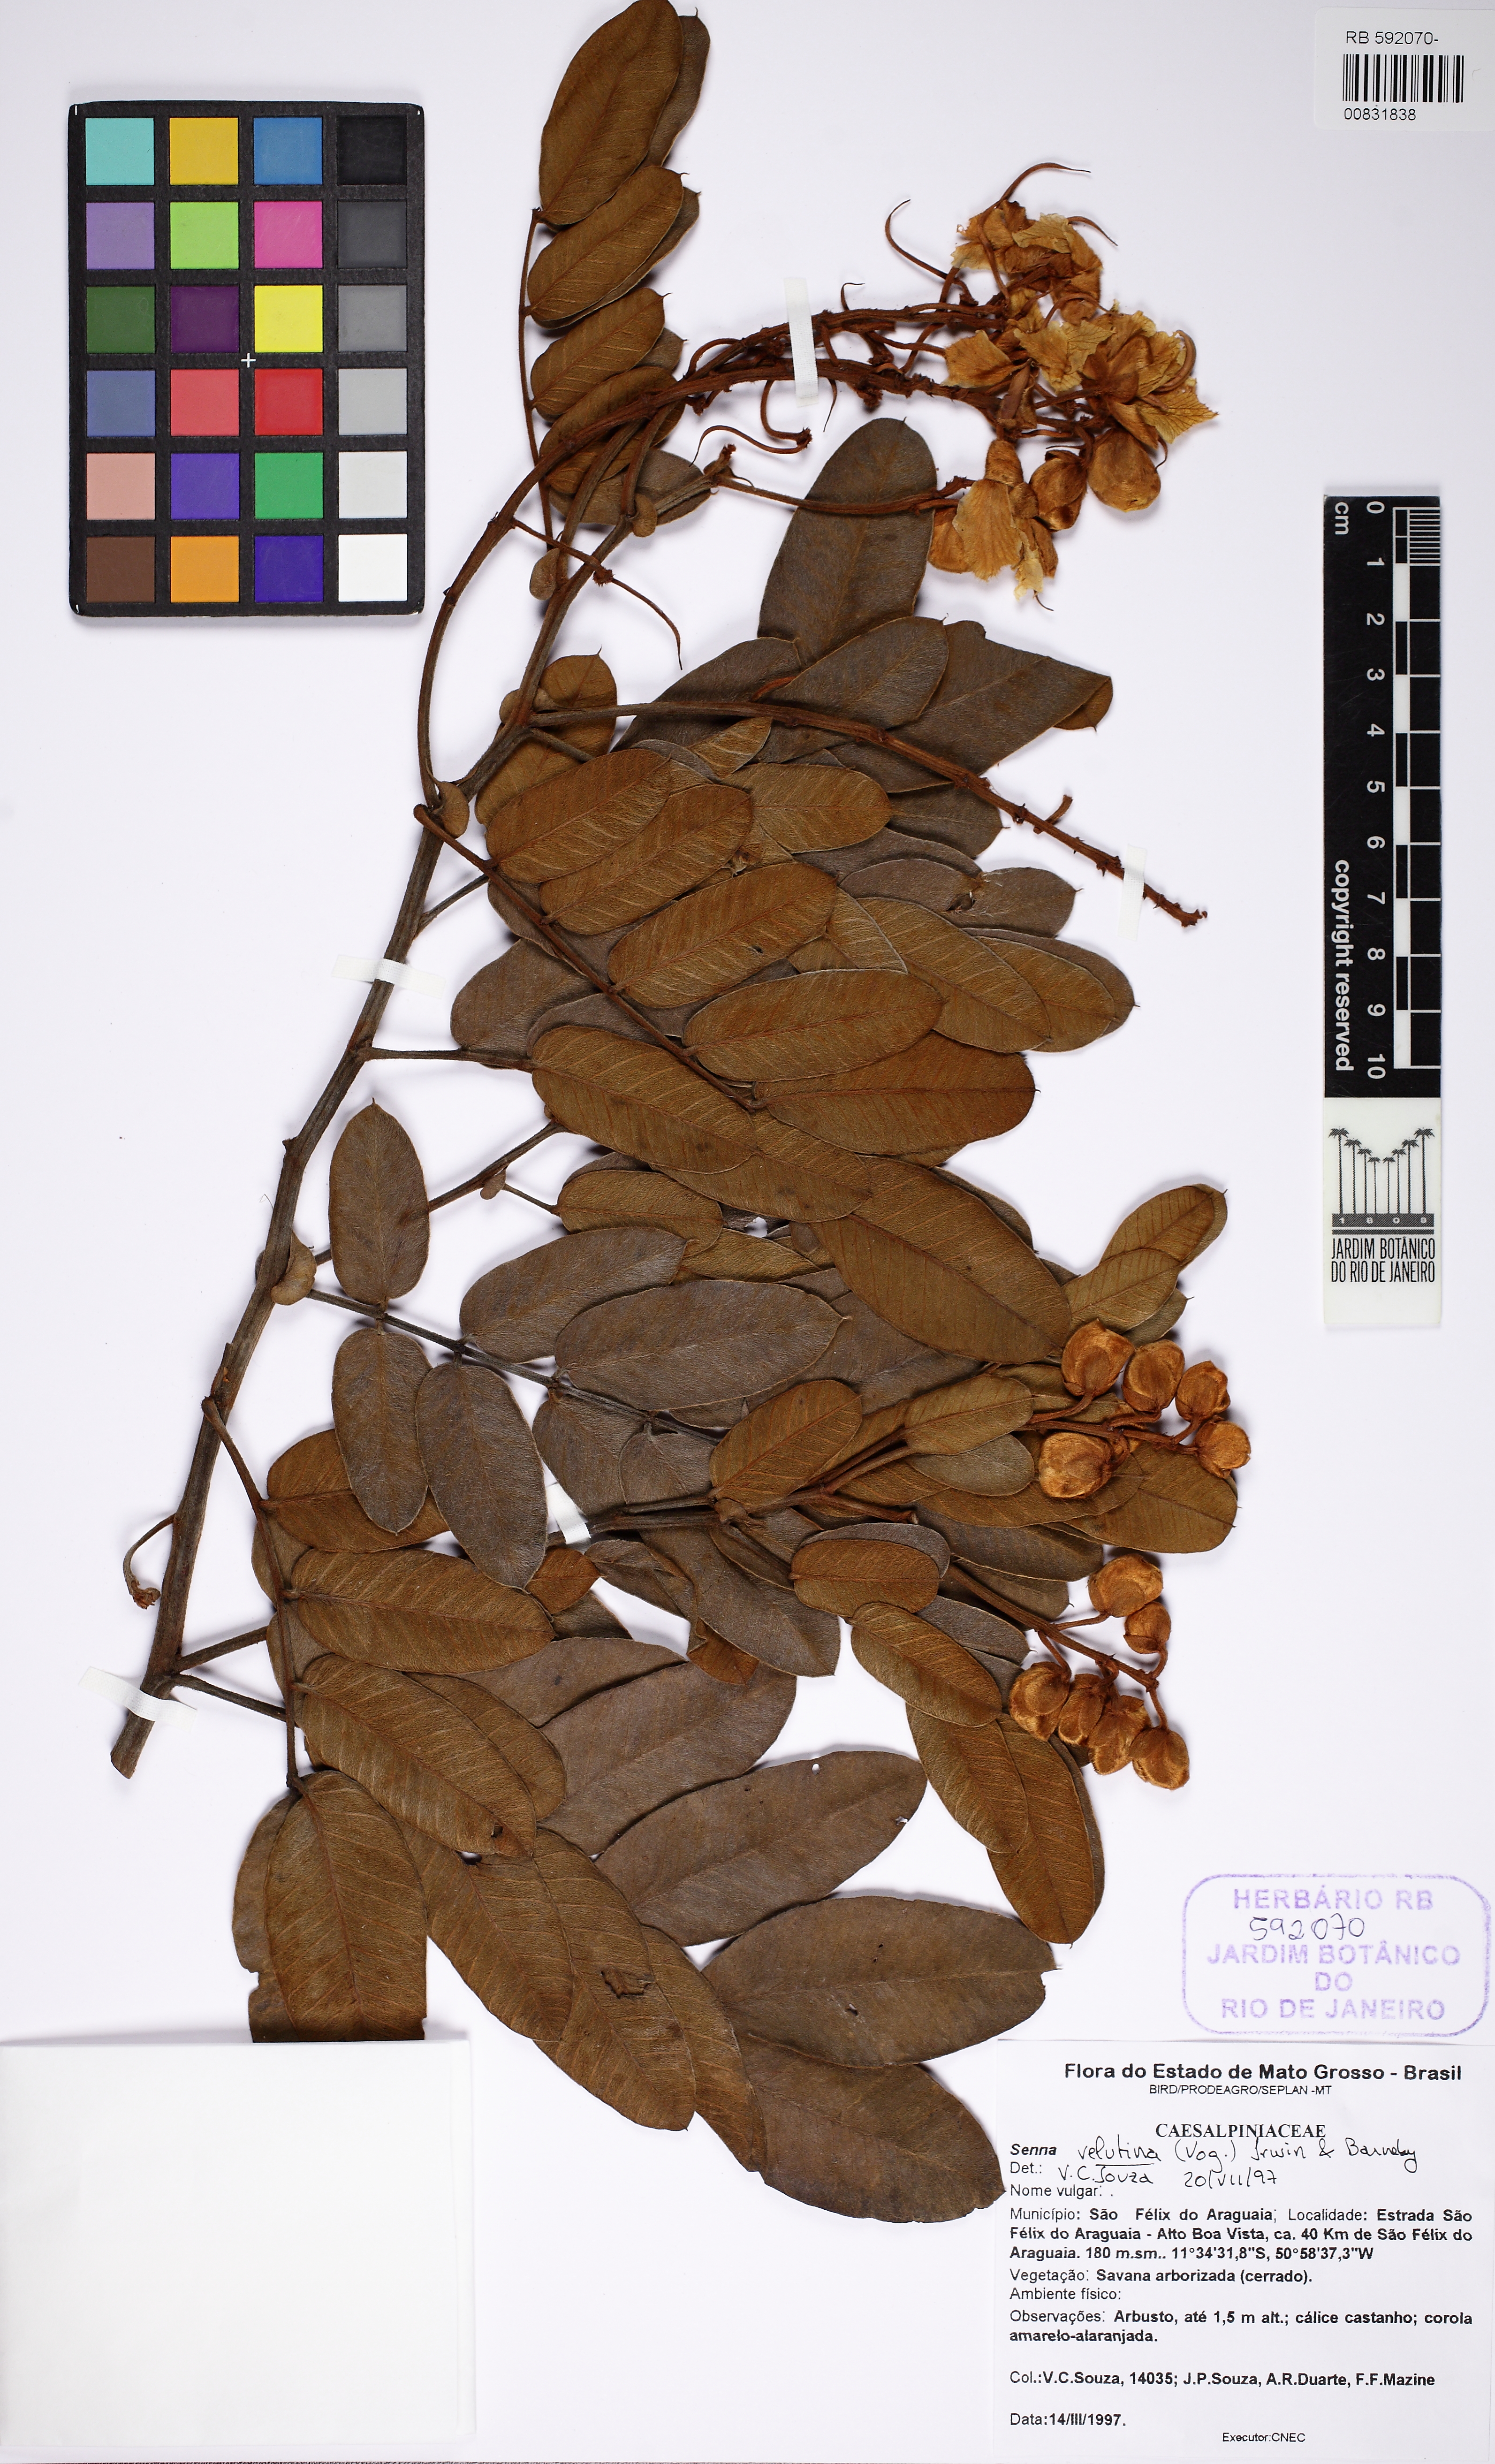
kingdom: Plantae
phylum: Tracheophyta
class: Magnoliopsida
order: Fabales
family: Fabaceae
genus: Senna
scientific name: Senna velutina
